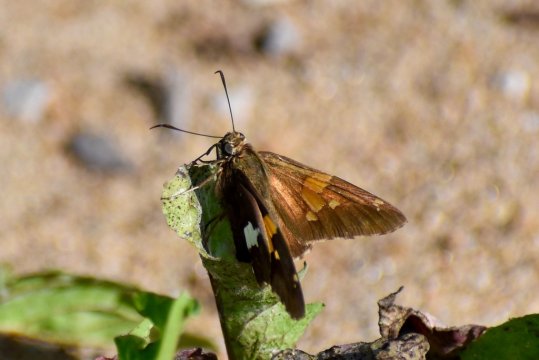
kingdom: Animalia
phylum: Arthropoda
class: Insecta
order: Lepidoptera
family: Hesperiidae
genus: Epargyreus
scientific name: Epargyreus clarus
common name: Silver-spotted Skipper
